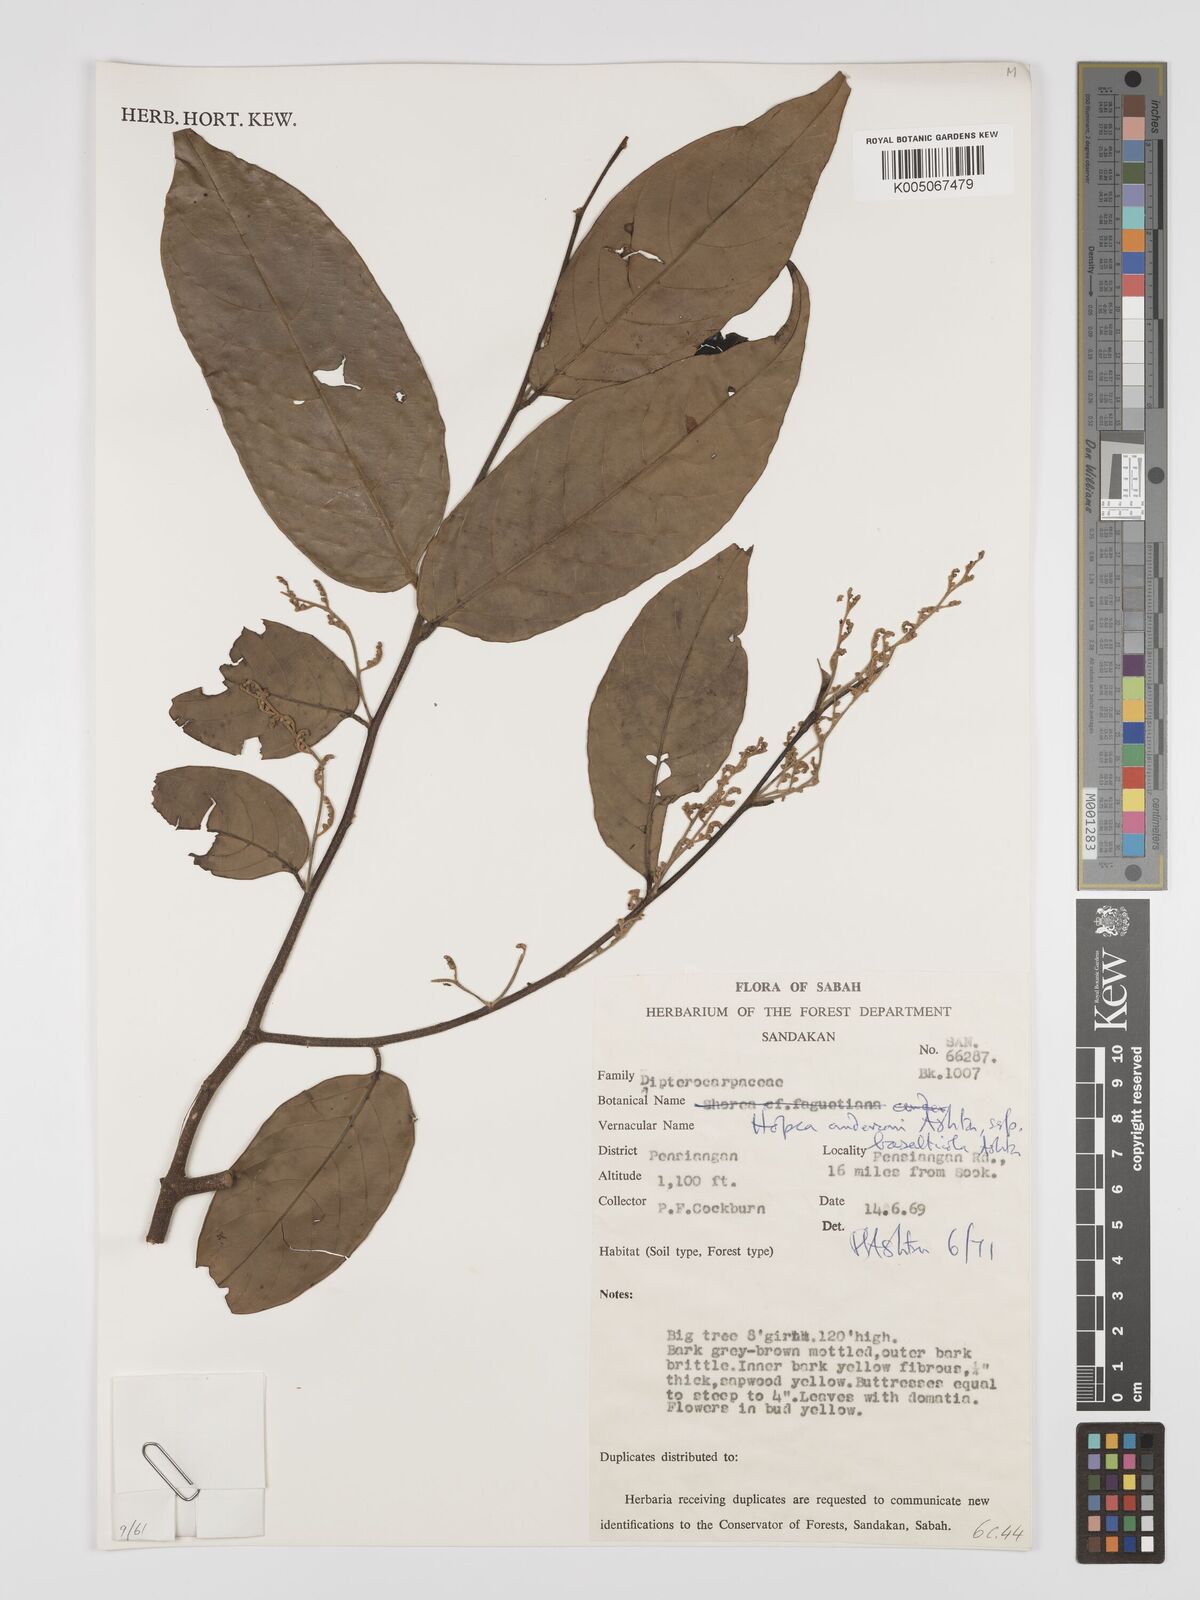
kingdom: Plantae
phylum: Tracheophyta
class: Magnoliopsida
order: Malvales
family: Dipterocarpaceae
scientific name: Dipterocarpaceae
